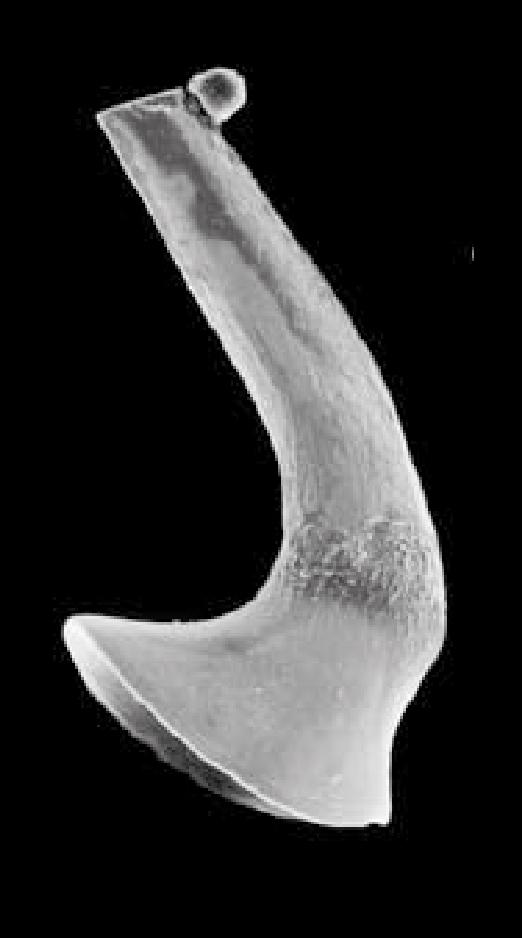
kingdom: Animalia
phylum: Chordata
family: Cornuodontidae
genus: Cornuodus
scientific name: Cornuodus Drepanodus longibasis
